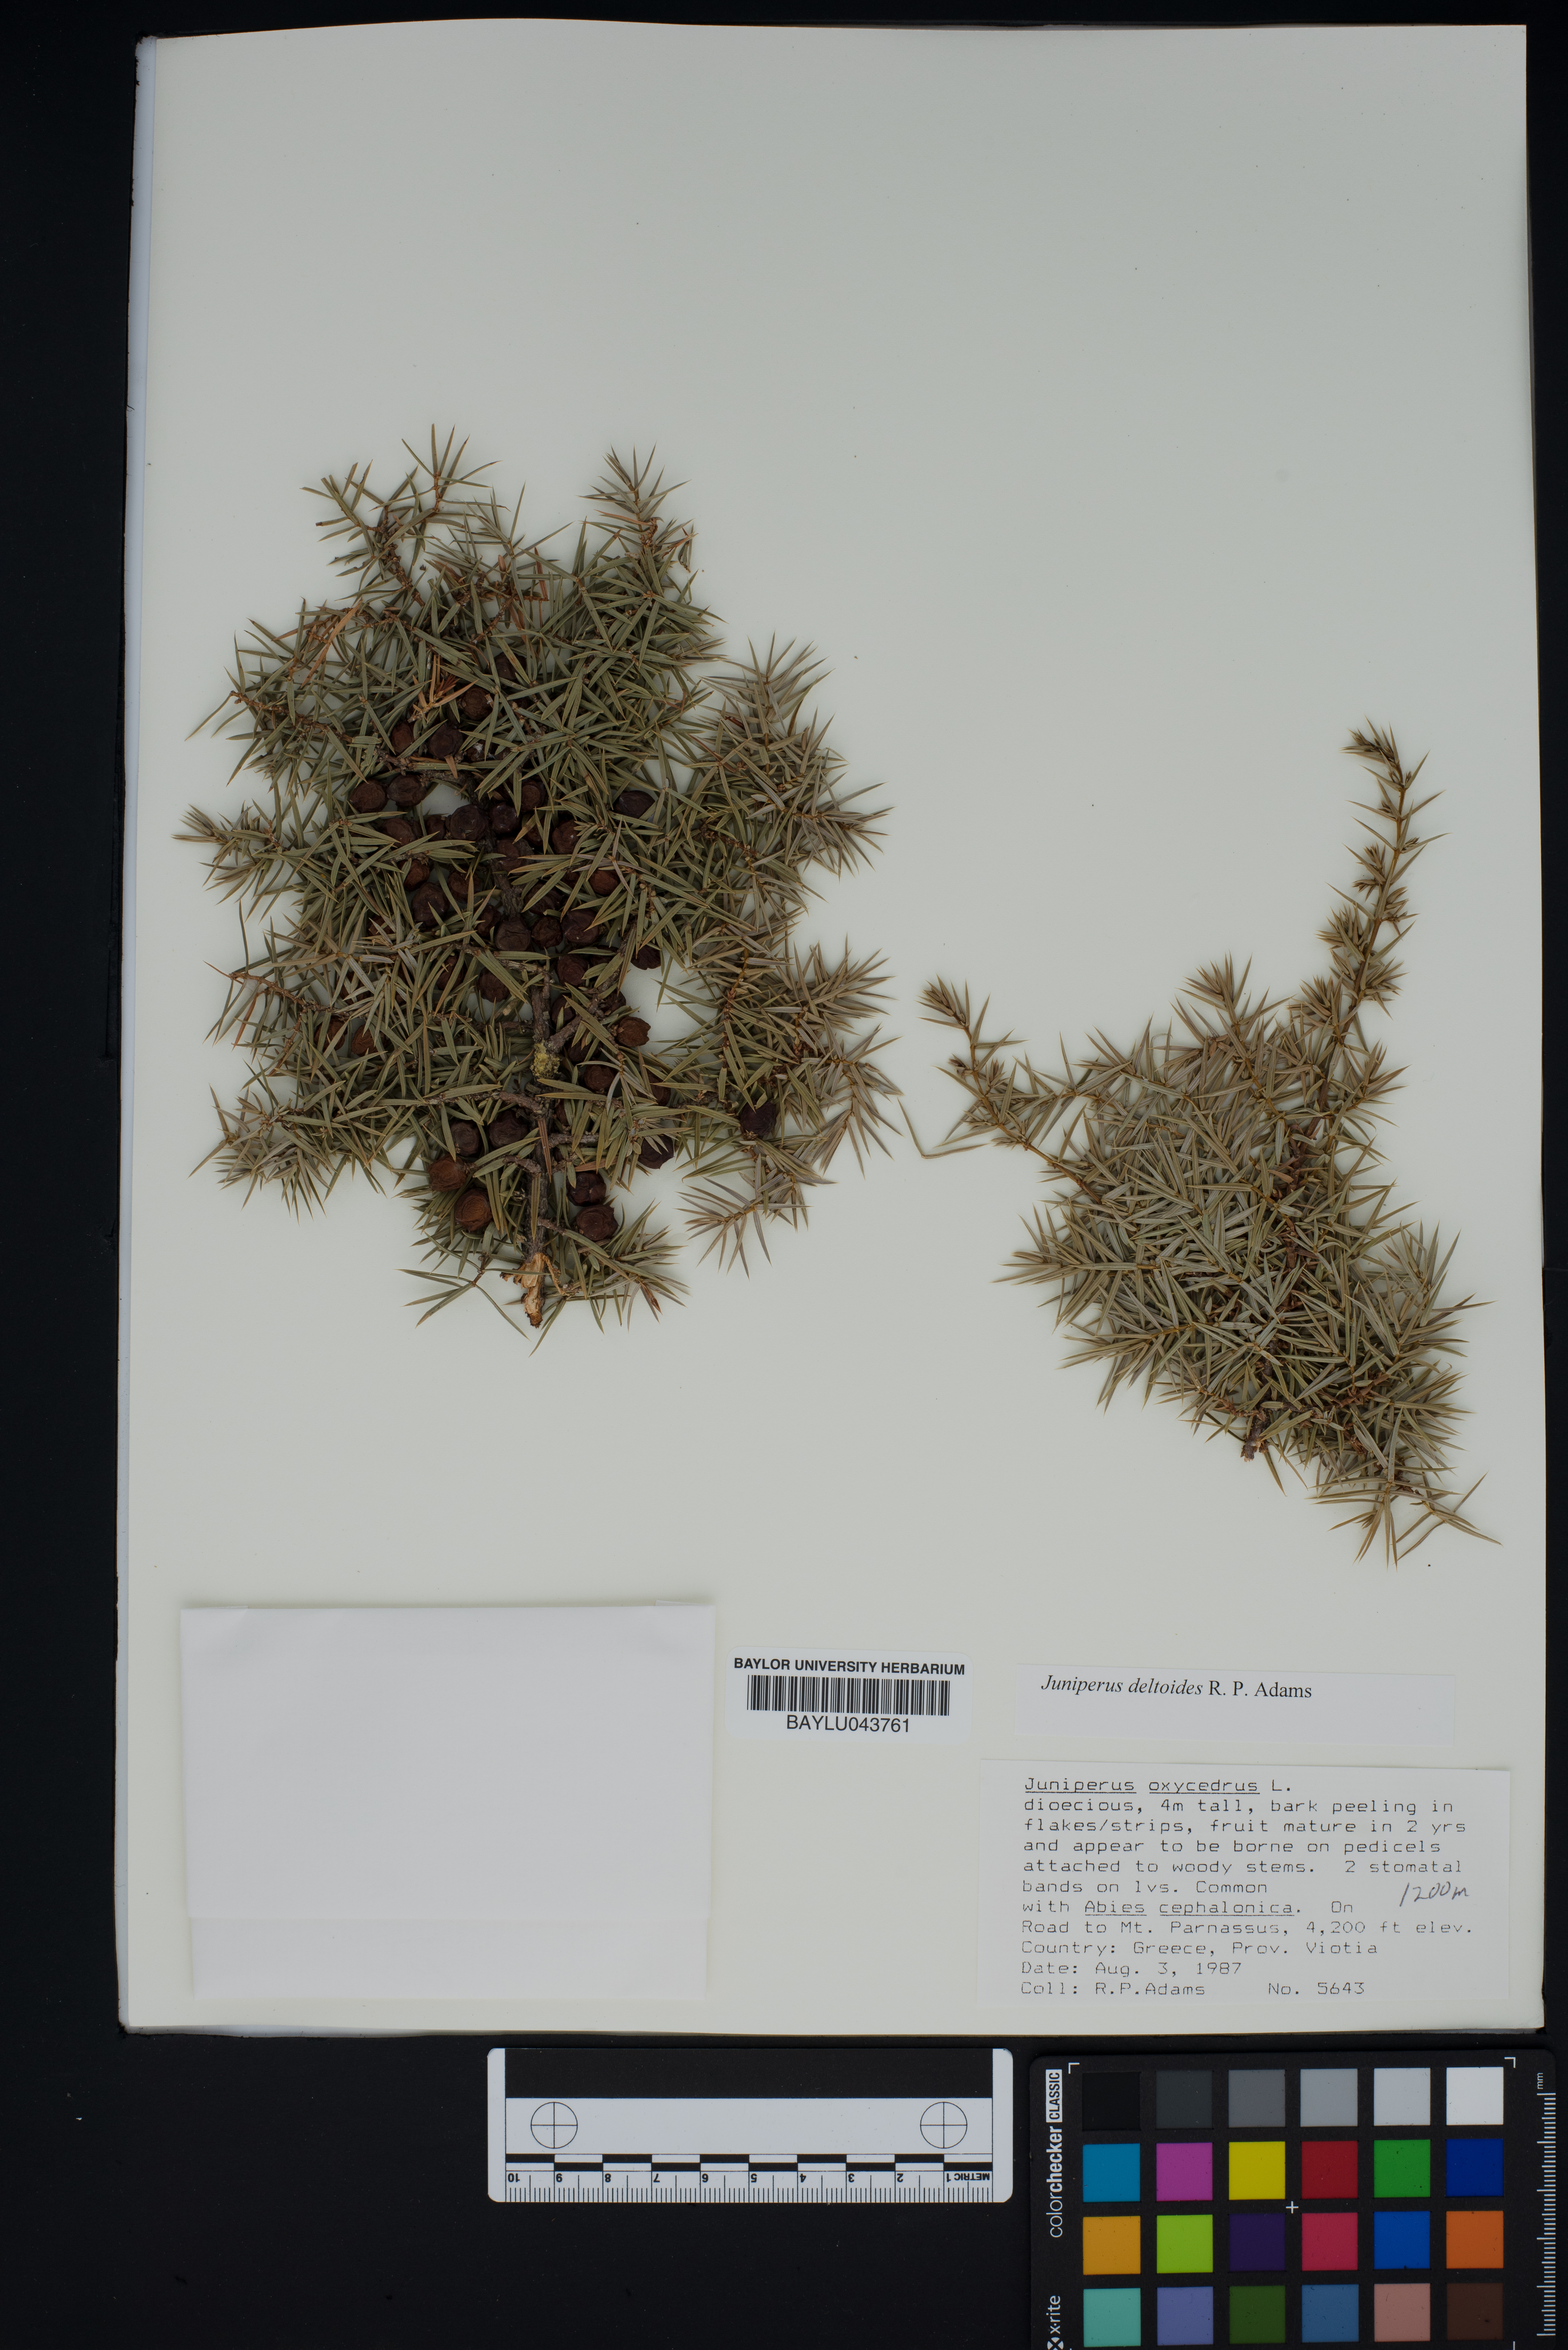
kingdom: Plantae
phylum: Tracheophyta
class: Pinopsida
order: Pinales
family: Cupressaceae
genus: Juniperus
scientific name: Juniperus oxycedrus
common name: Prickly juniper
